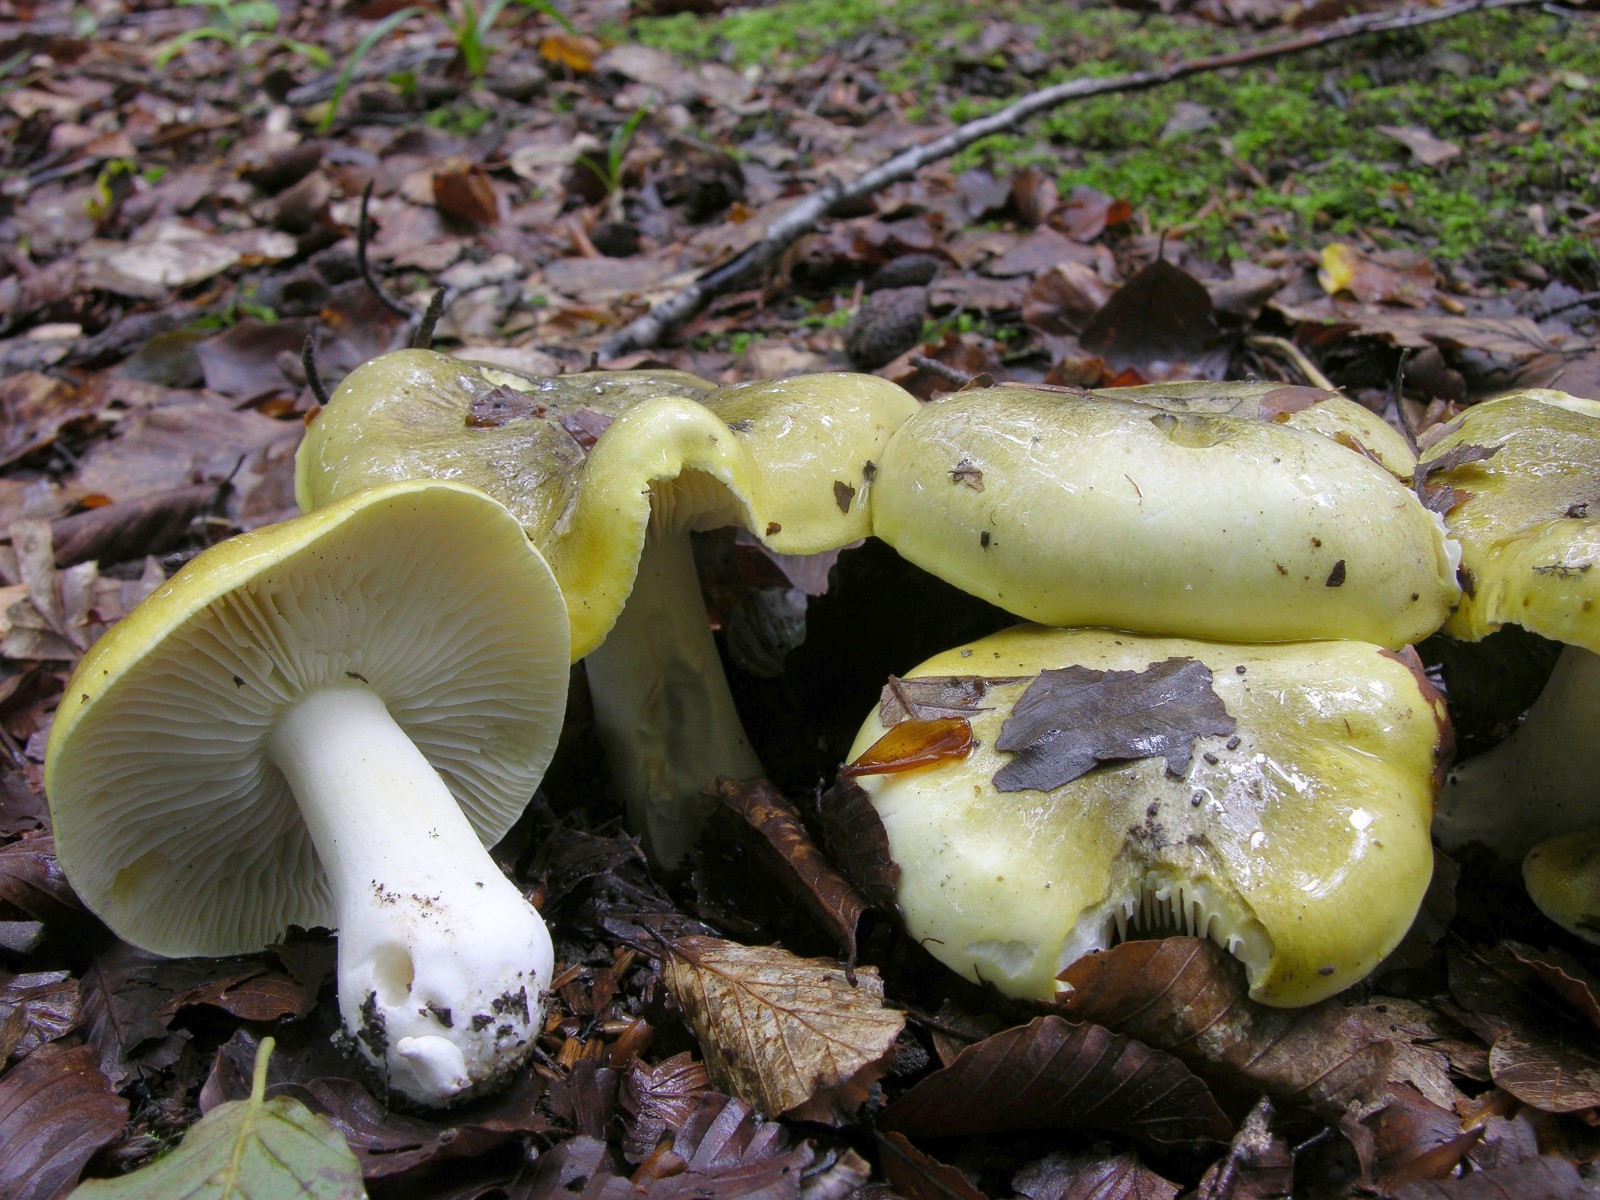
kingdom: Fungi
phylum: Basidiomycota
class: Agaricomycetes
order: Agaricales
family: Tricholomataceae
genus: Tricholoma
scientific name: Tricholoma sejunctum
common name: grøngul ridderhat
